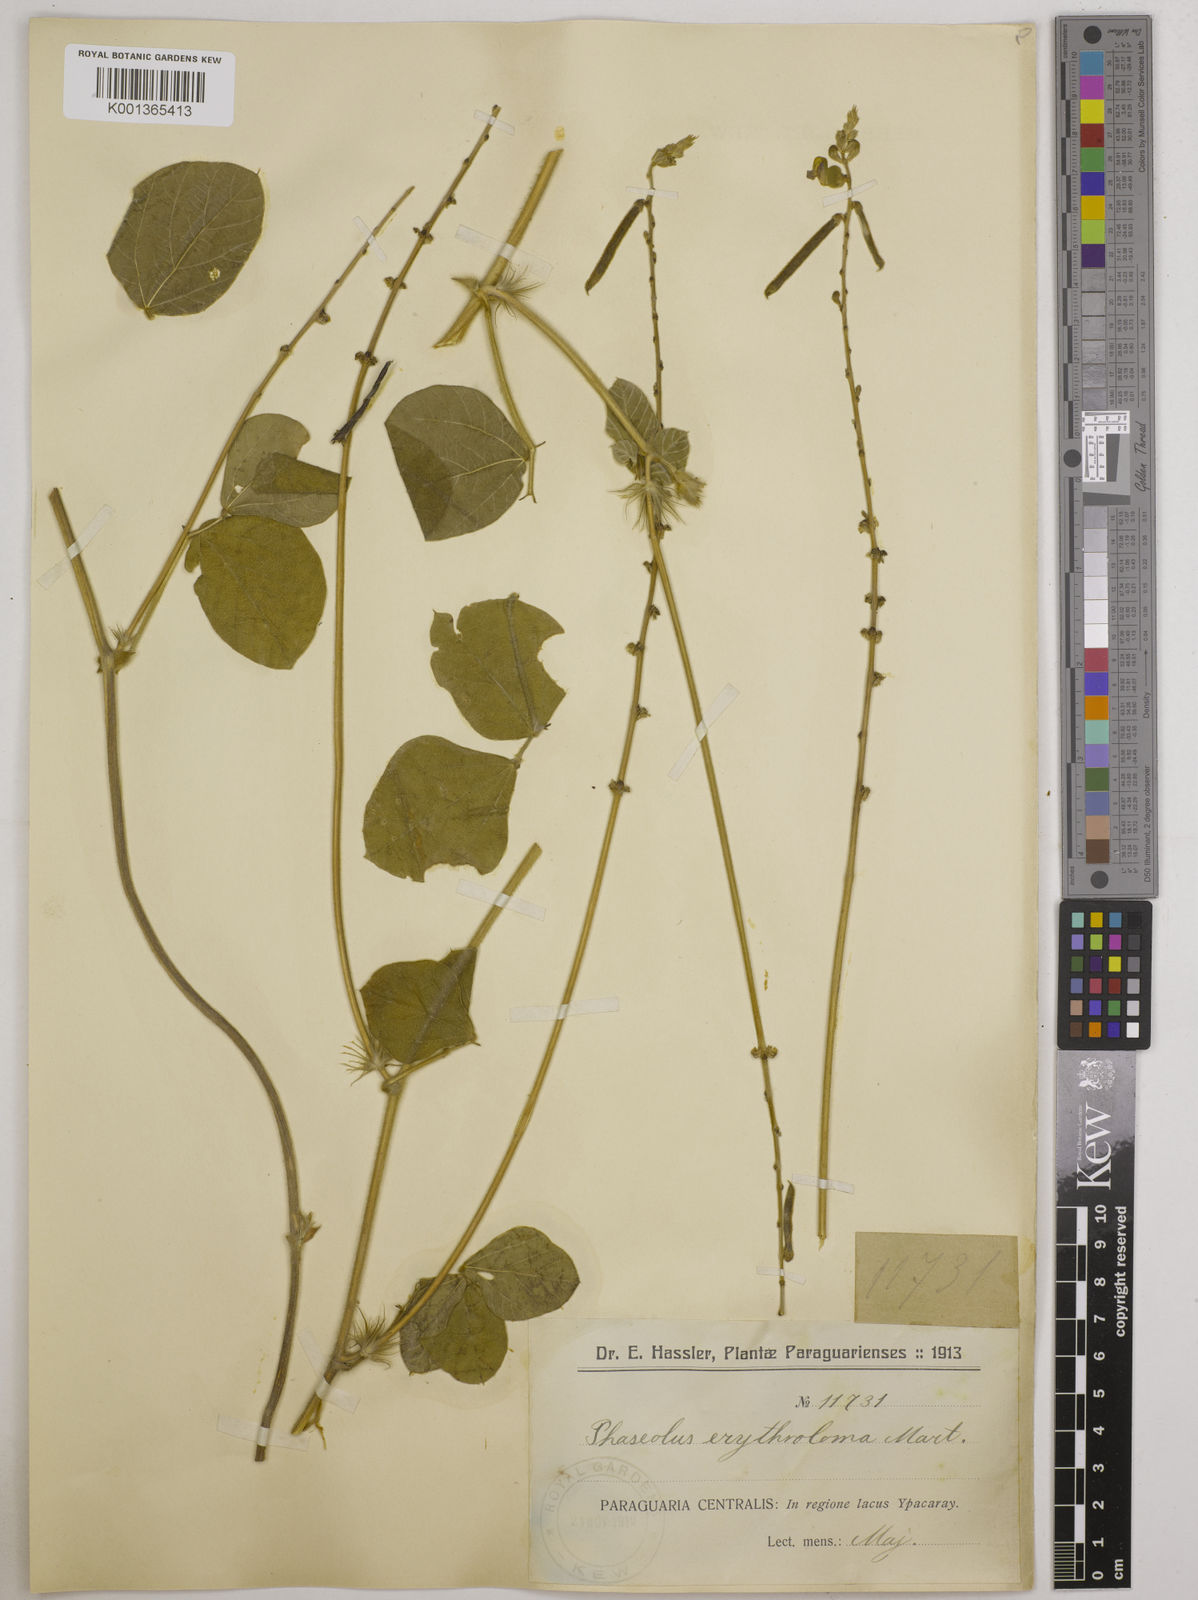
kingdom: Plantae
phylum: Tracheophyta
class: Magnoliopsida
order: Fabales
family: Fabaceae
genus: Macroptilium
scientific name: Macroptilium erythroloma
